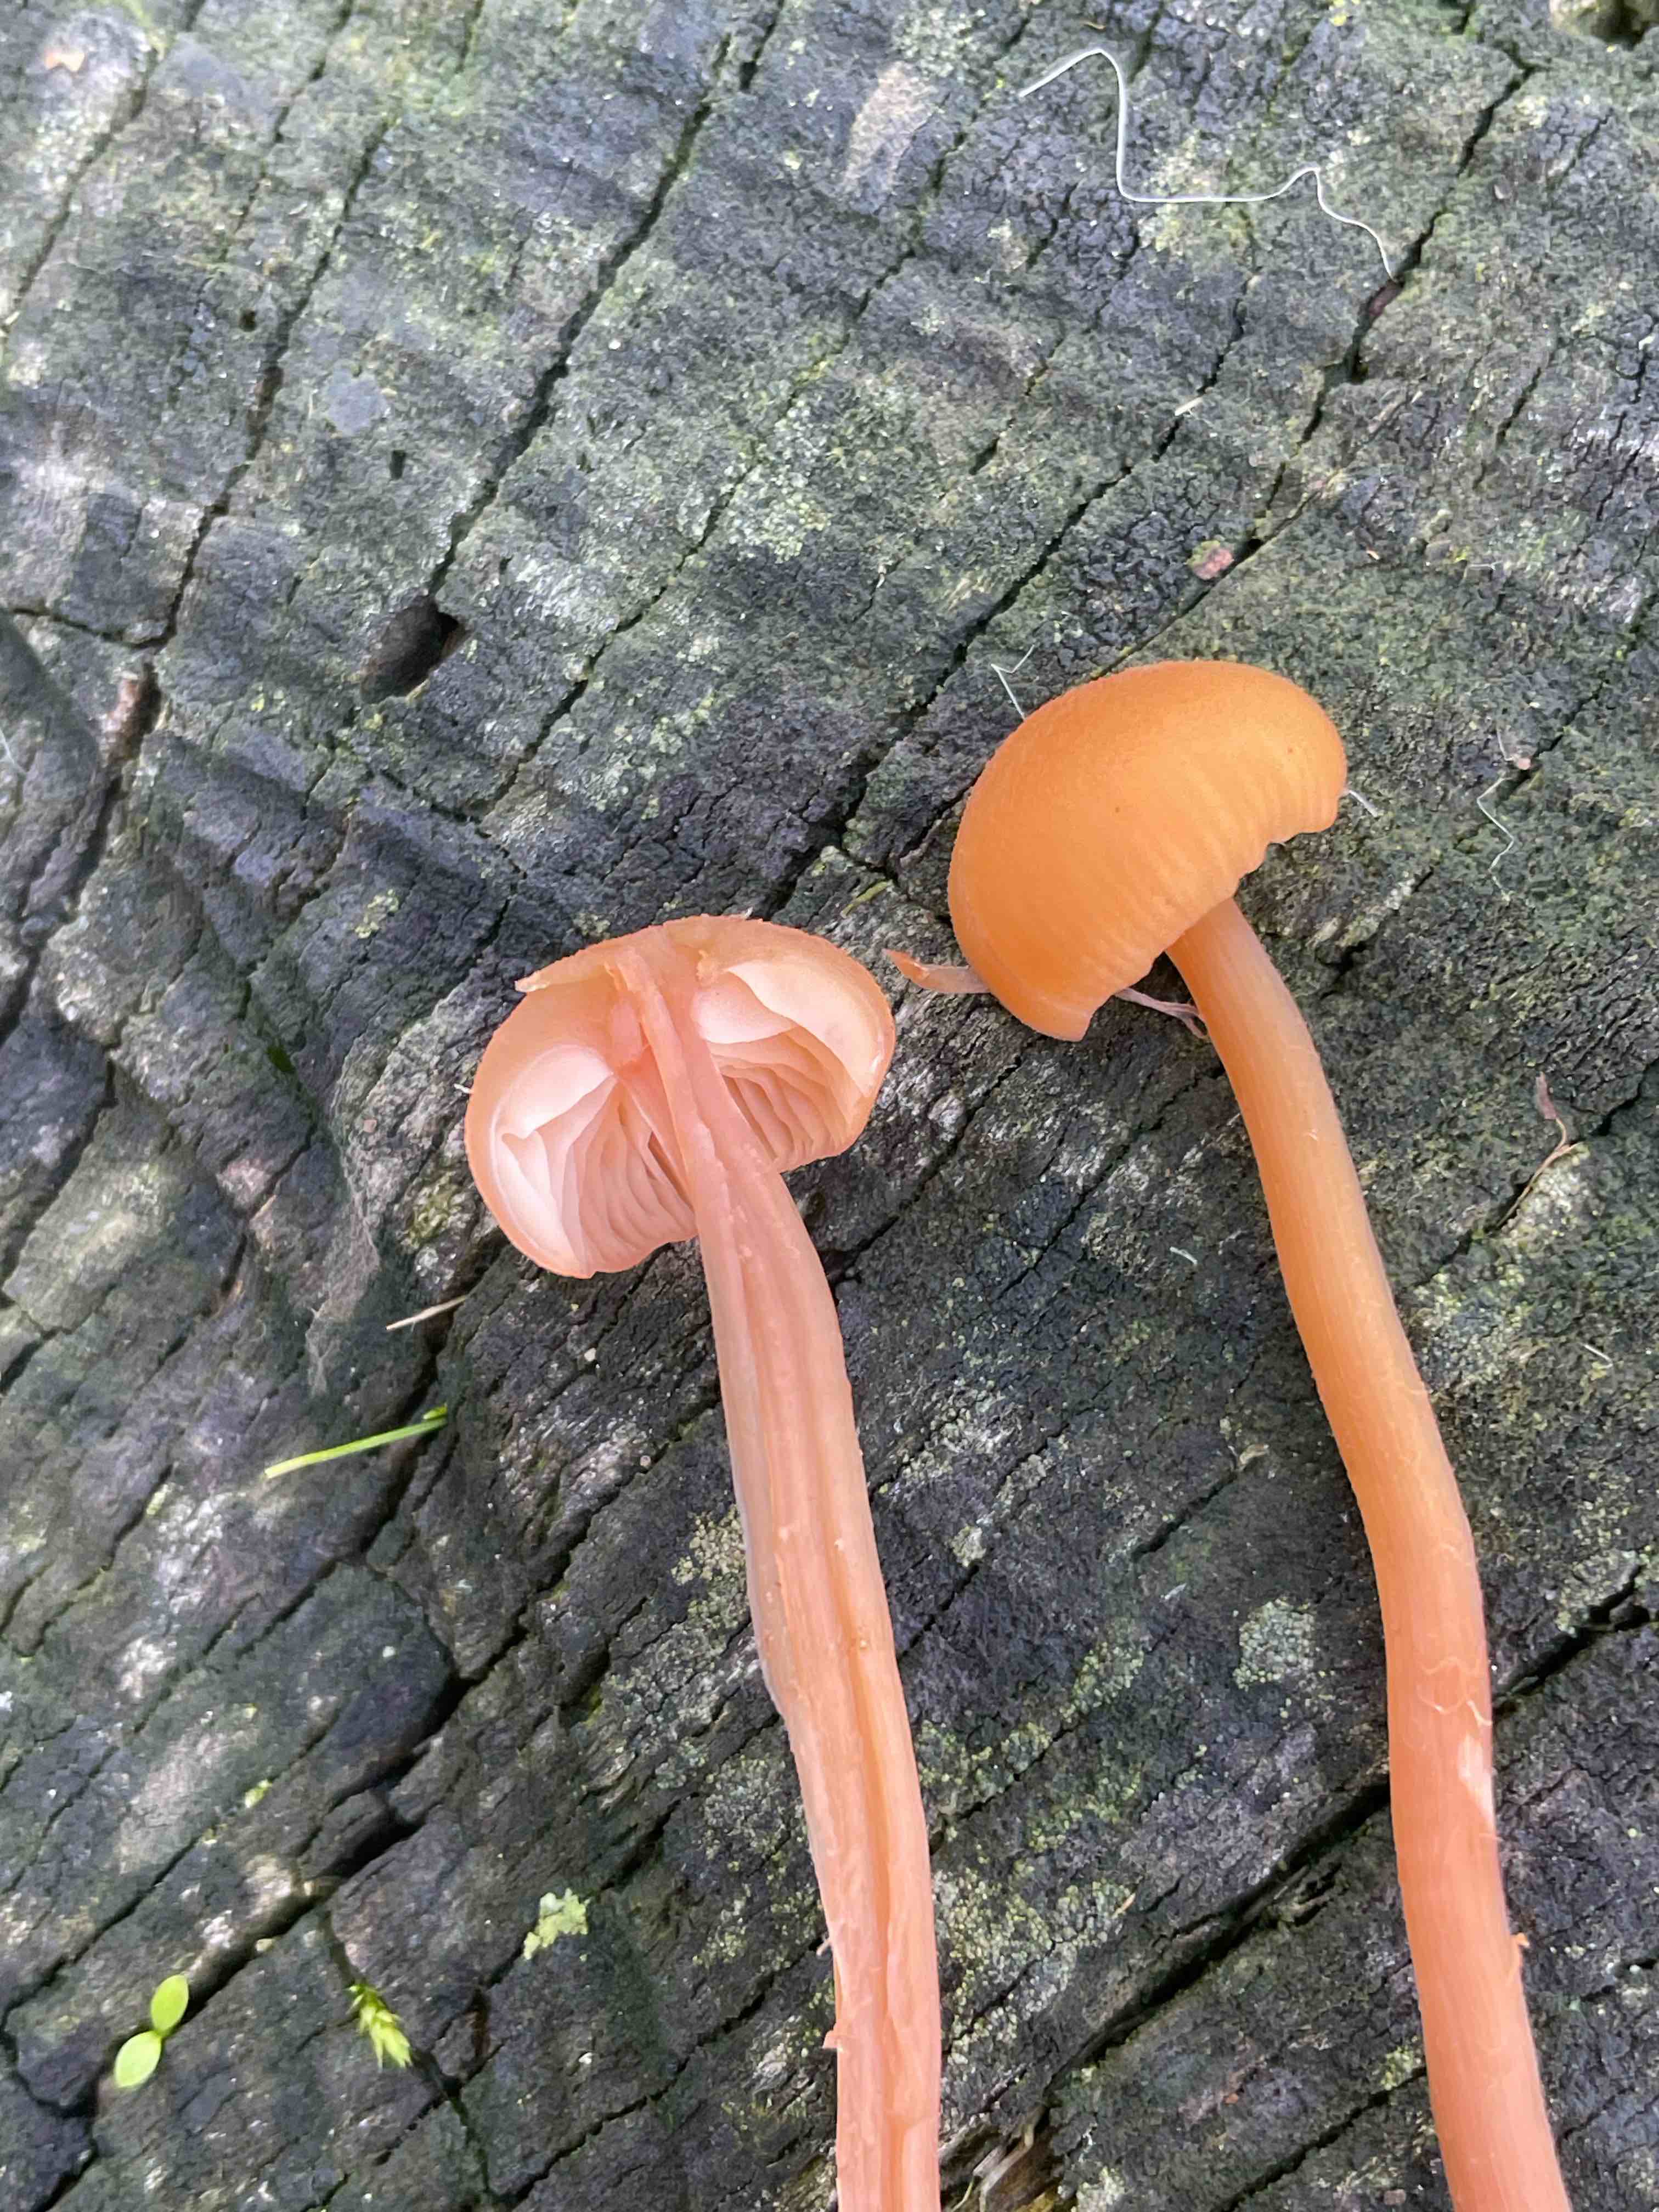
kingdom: Fungi
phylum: Basidiomycota
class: Agaricomycetes
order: Agaricales
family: Hydnangiaceae
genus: Laccaria
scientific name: Laccaria laccata
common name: rød ametysthat
